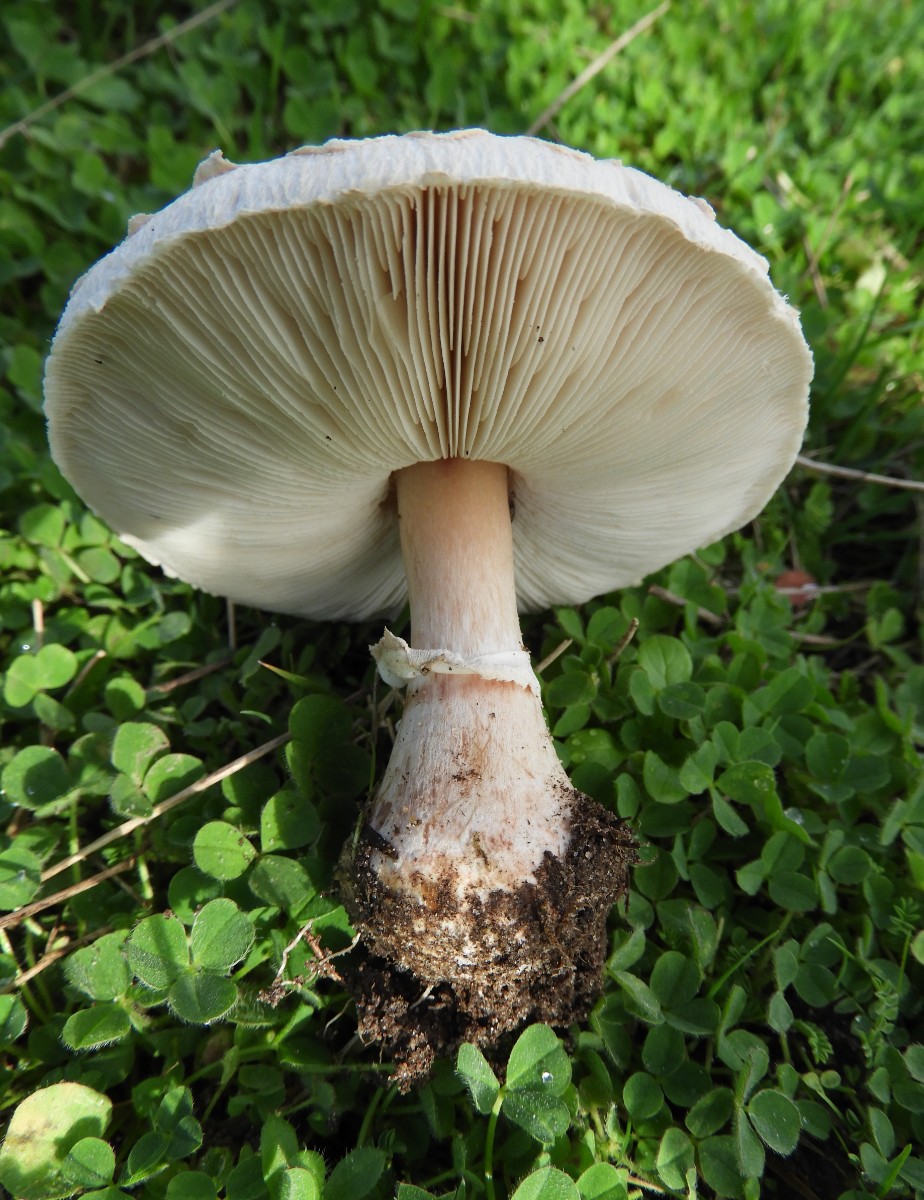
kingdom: Fungi
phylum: Basidiomycota
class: Agaricomycetes
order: Agaricales
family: Agaricaceae
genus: Macrolepiota
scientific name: Macrolepiota mastoidea
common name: puklet kæmpeparasolhat
